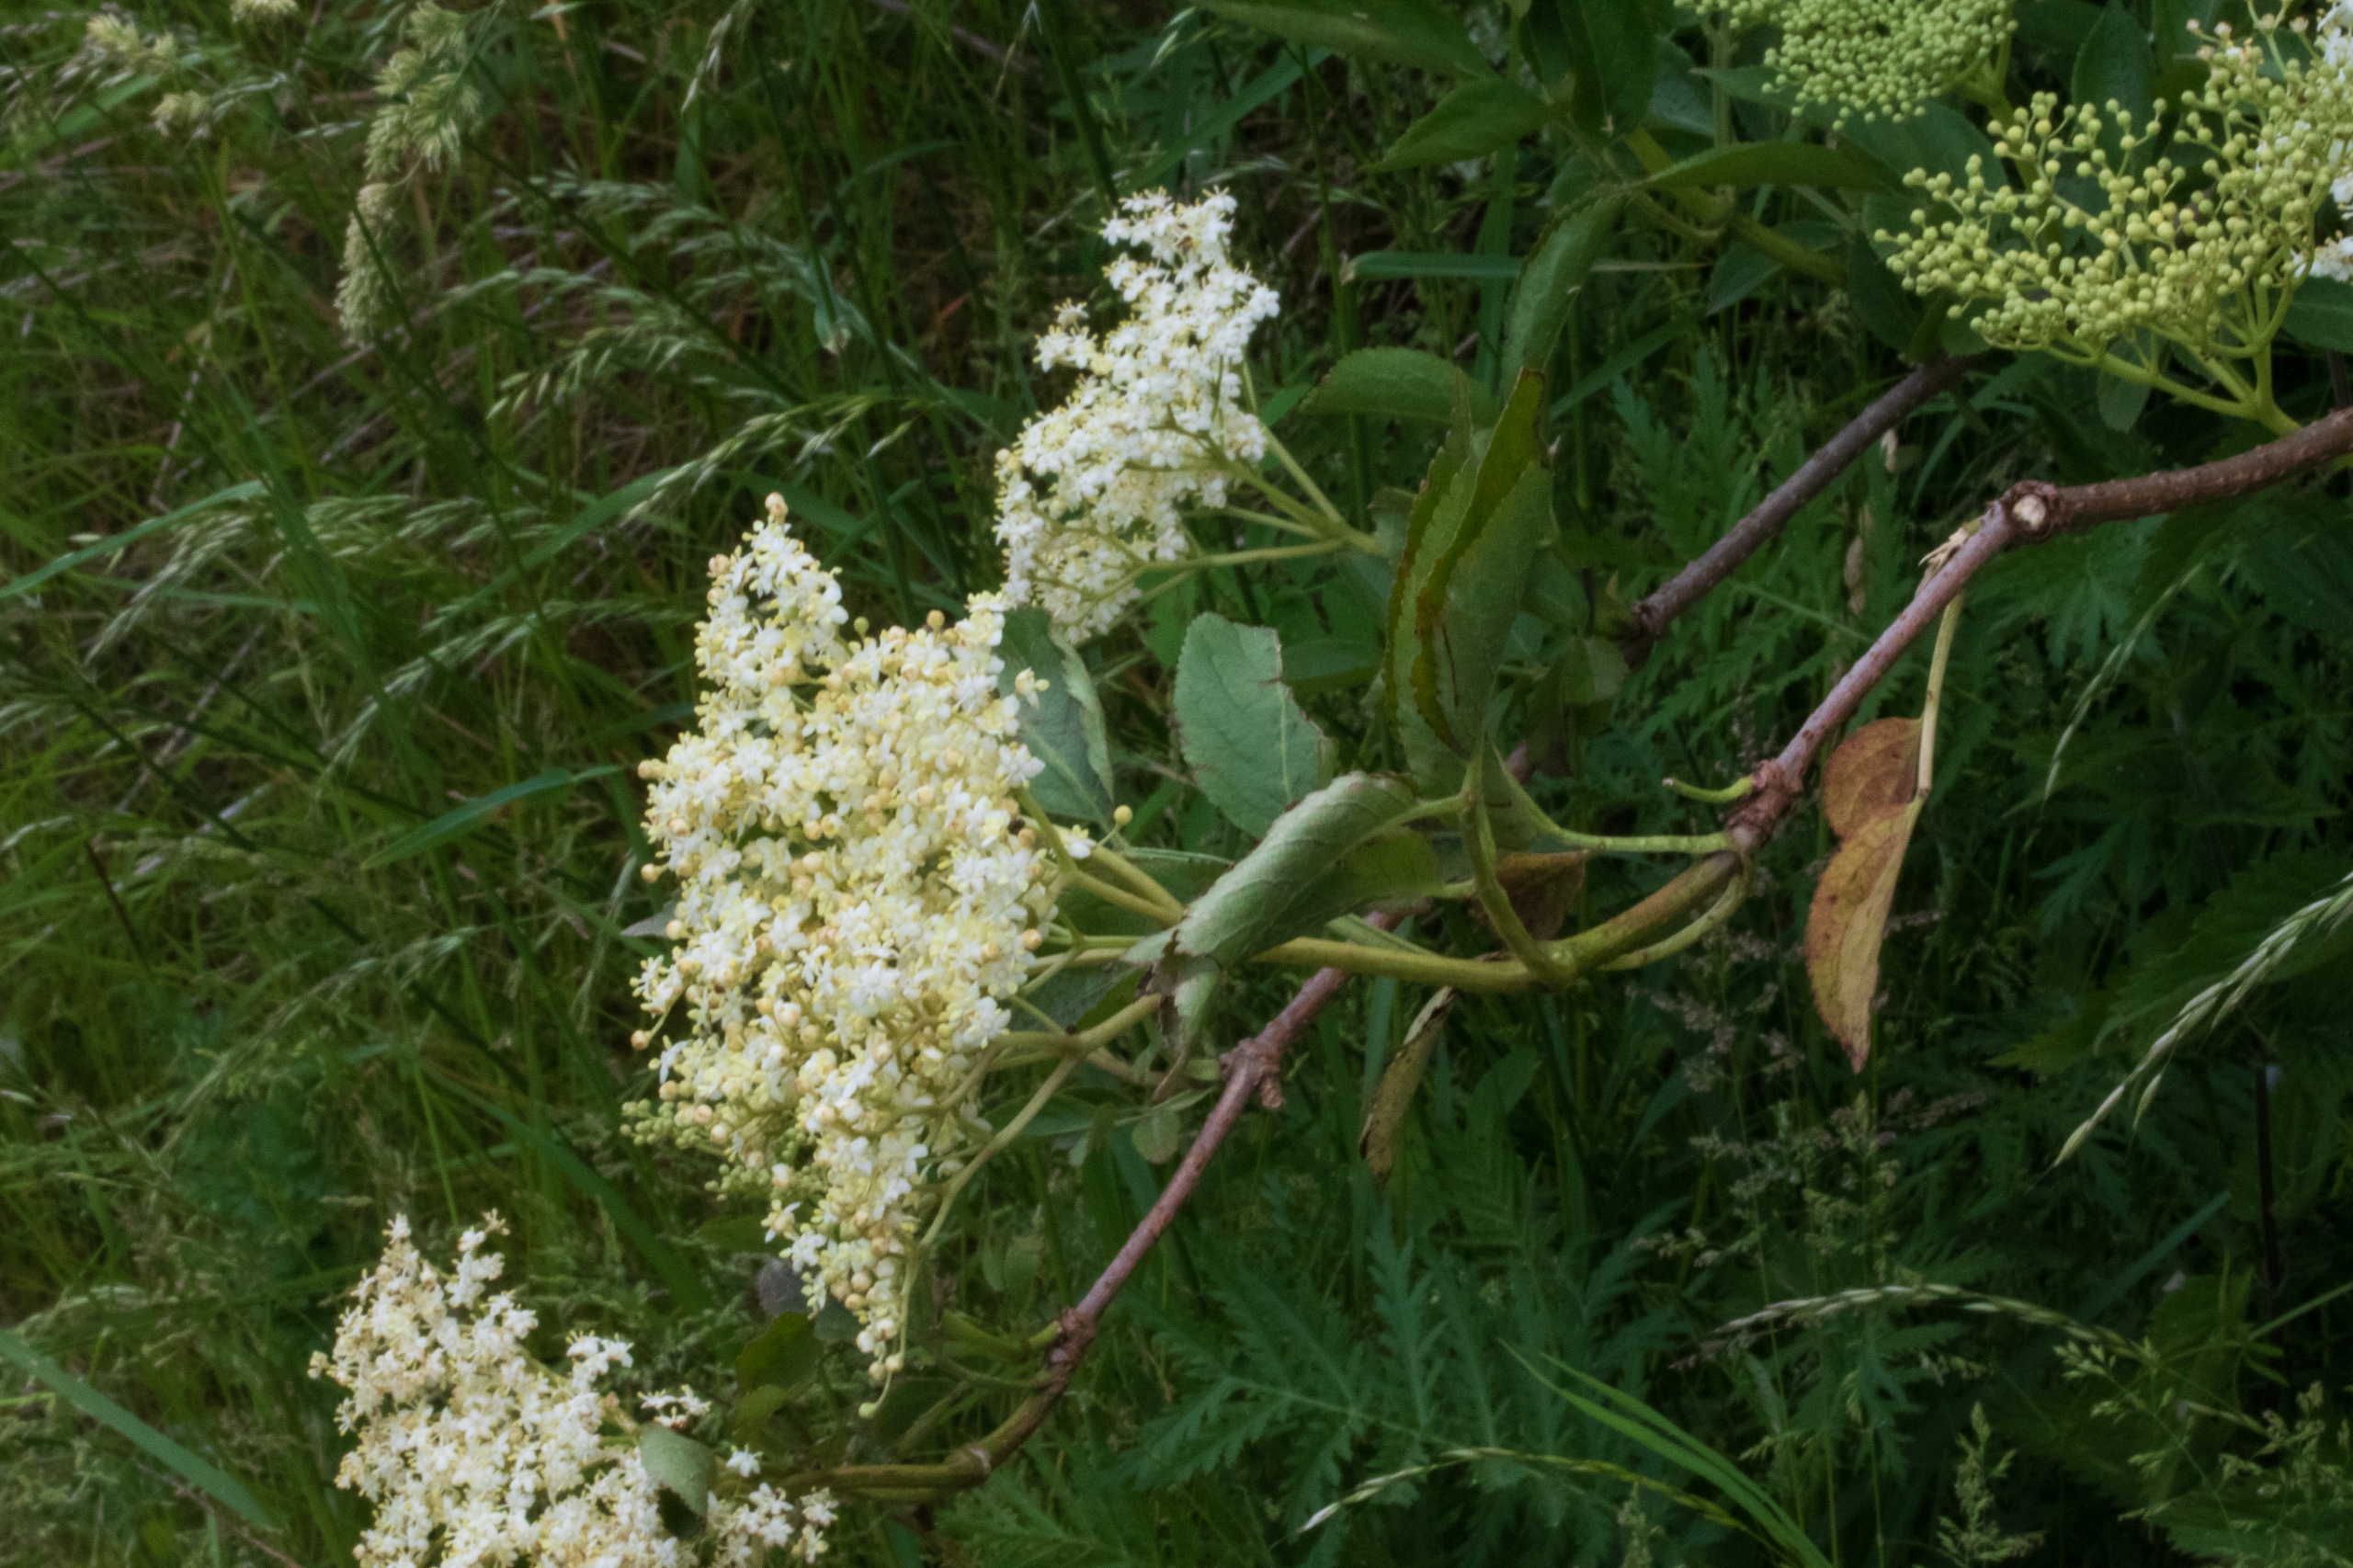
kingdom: Plantae
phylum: Tracheophyta
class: Magnoliopsida
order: Dipsacales
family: Viburnaceae
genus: Sambucus
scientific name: Sambucus nigra
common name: Almindelig hyld
